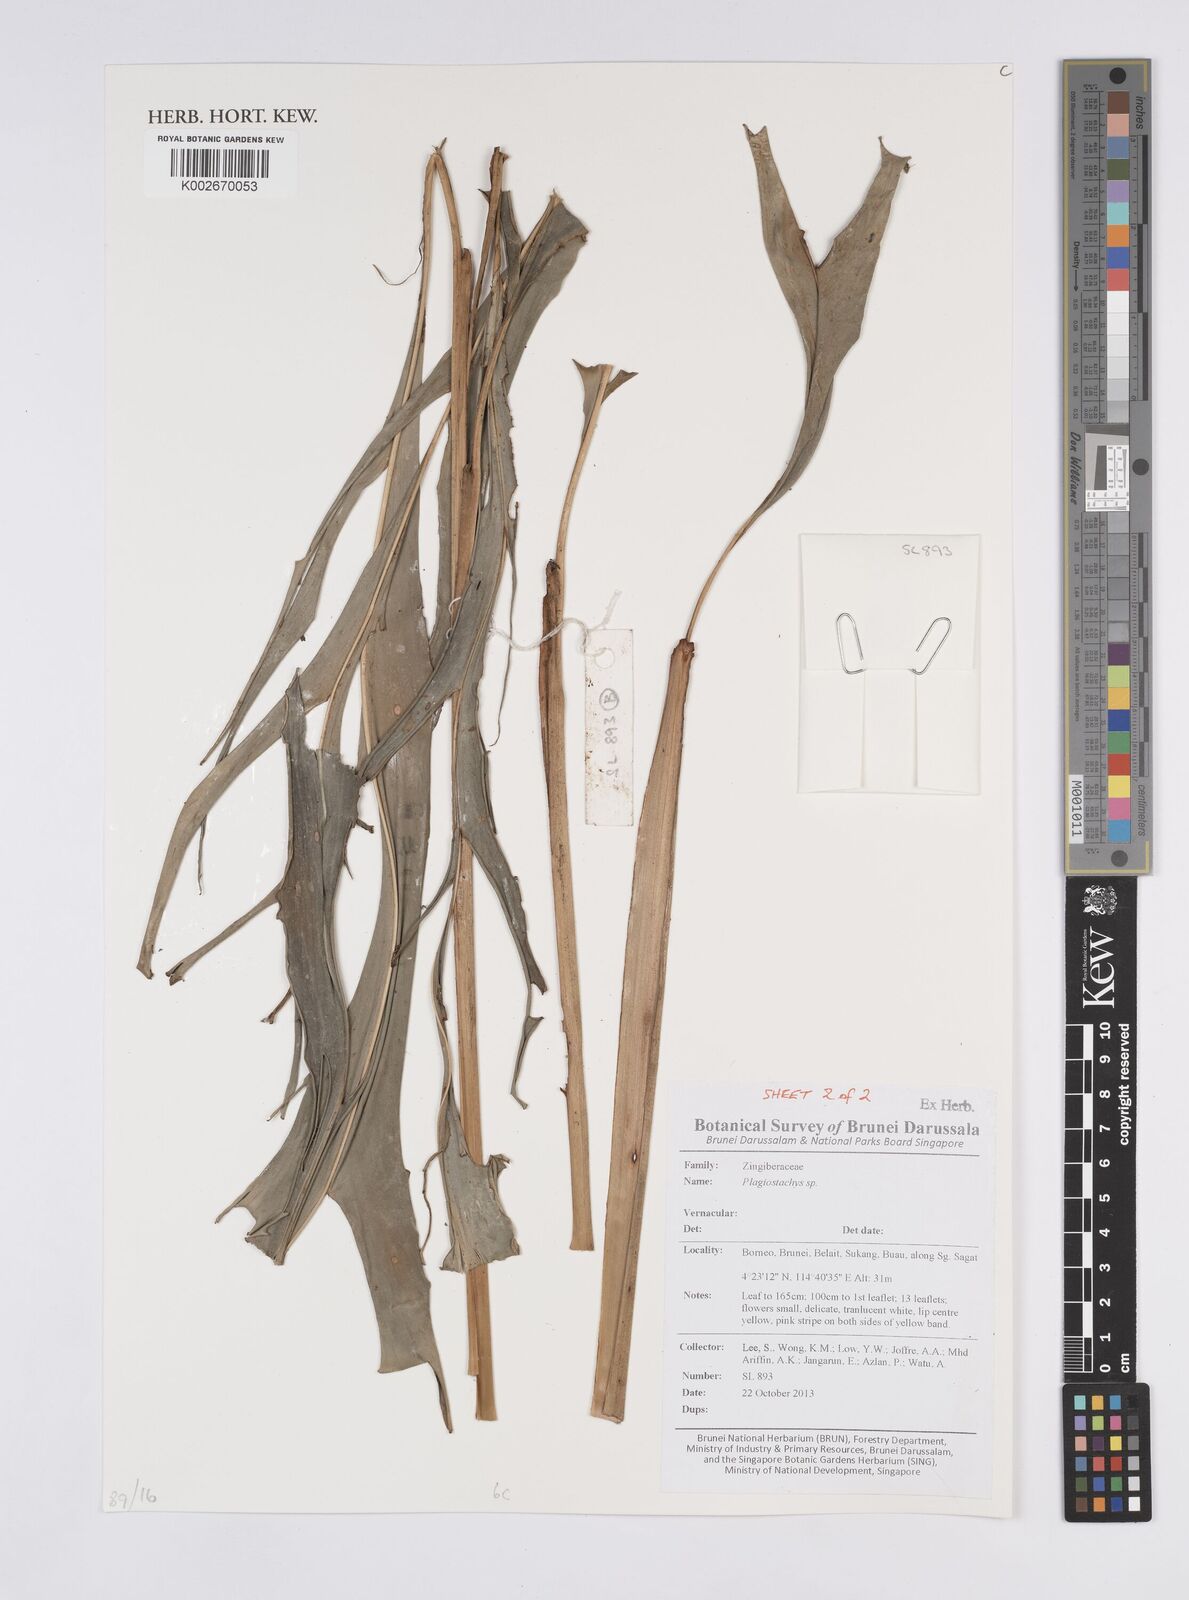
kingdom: Plantae
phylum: Tracheophyta
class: Liliopsida
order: Zingiberales
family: Zingiberaceae
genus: Plagiostachys
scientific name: Plagiostachys
